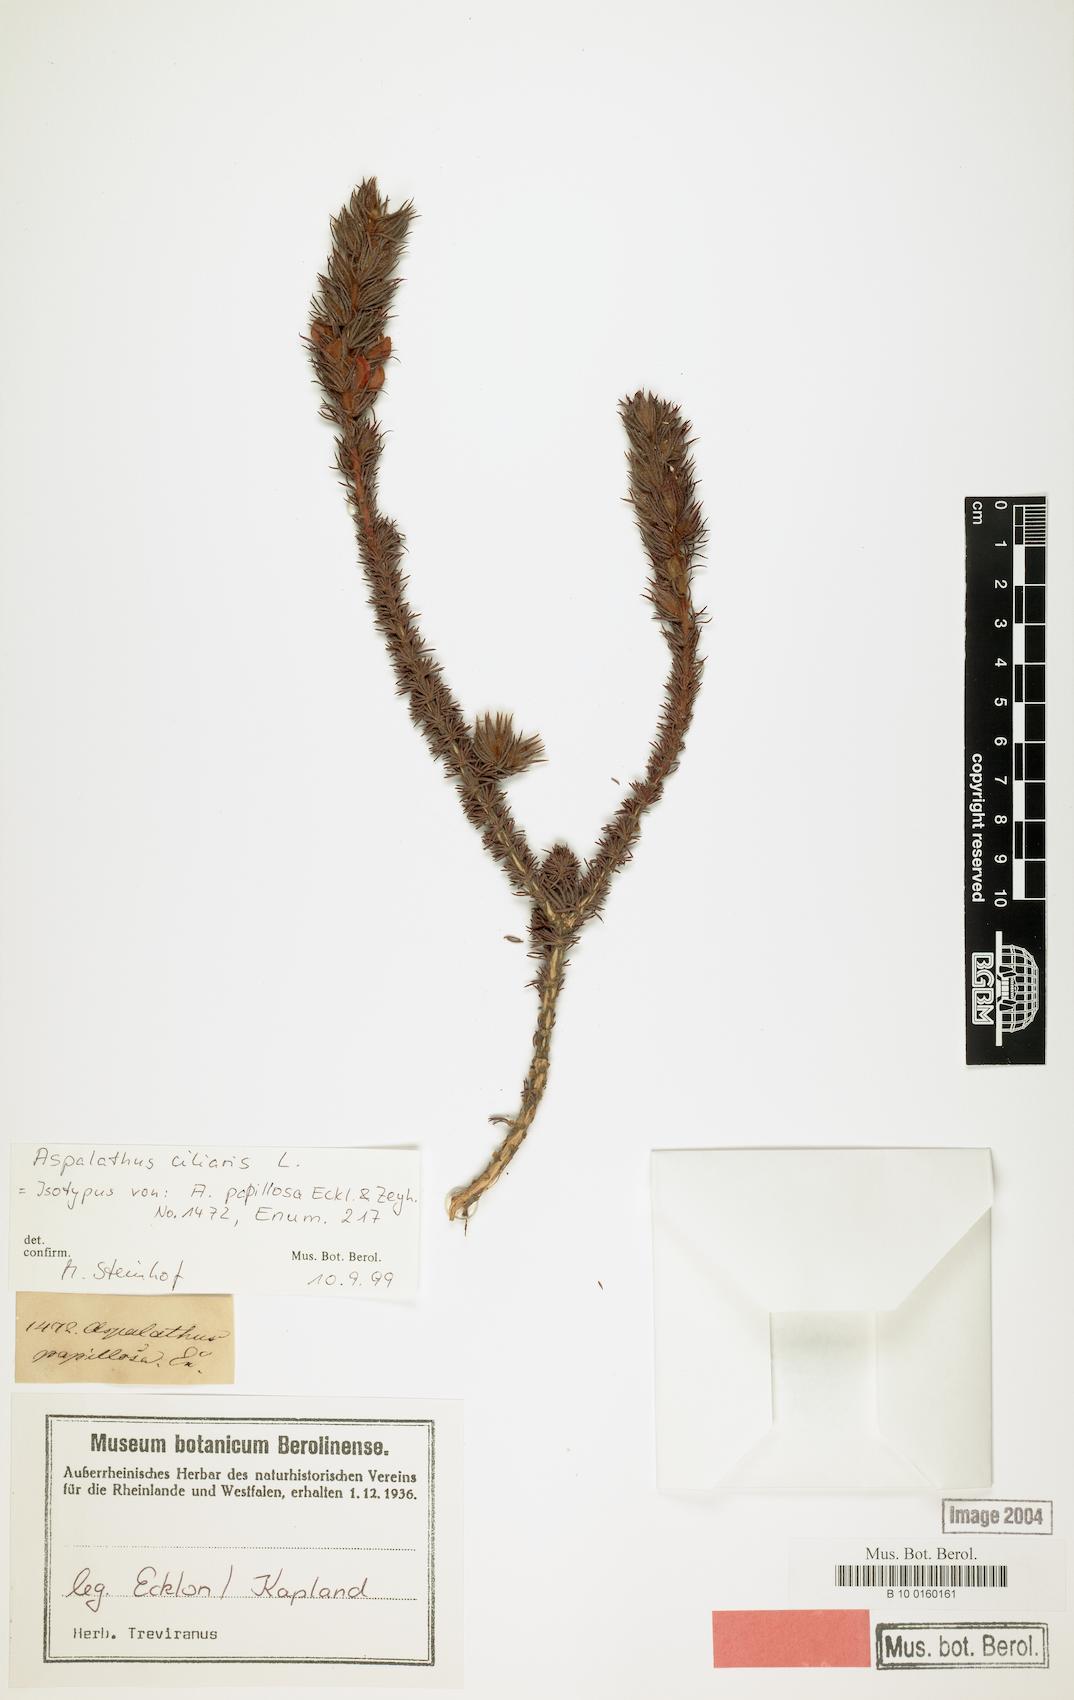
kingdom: Plantae
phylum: Tracheophyta
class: Magnoliopsida
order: Fabales
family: Fabaceae
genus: Aspalathus
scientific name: Aspalathus ciliaris
